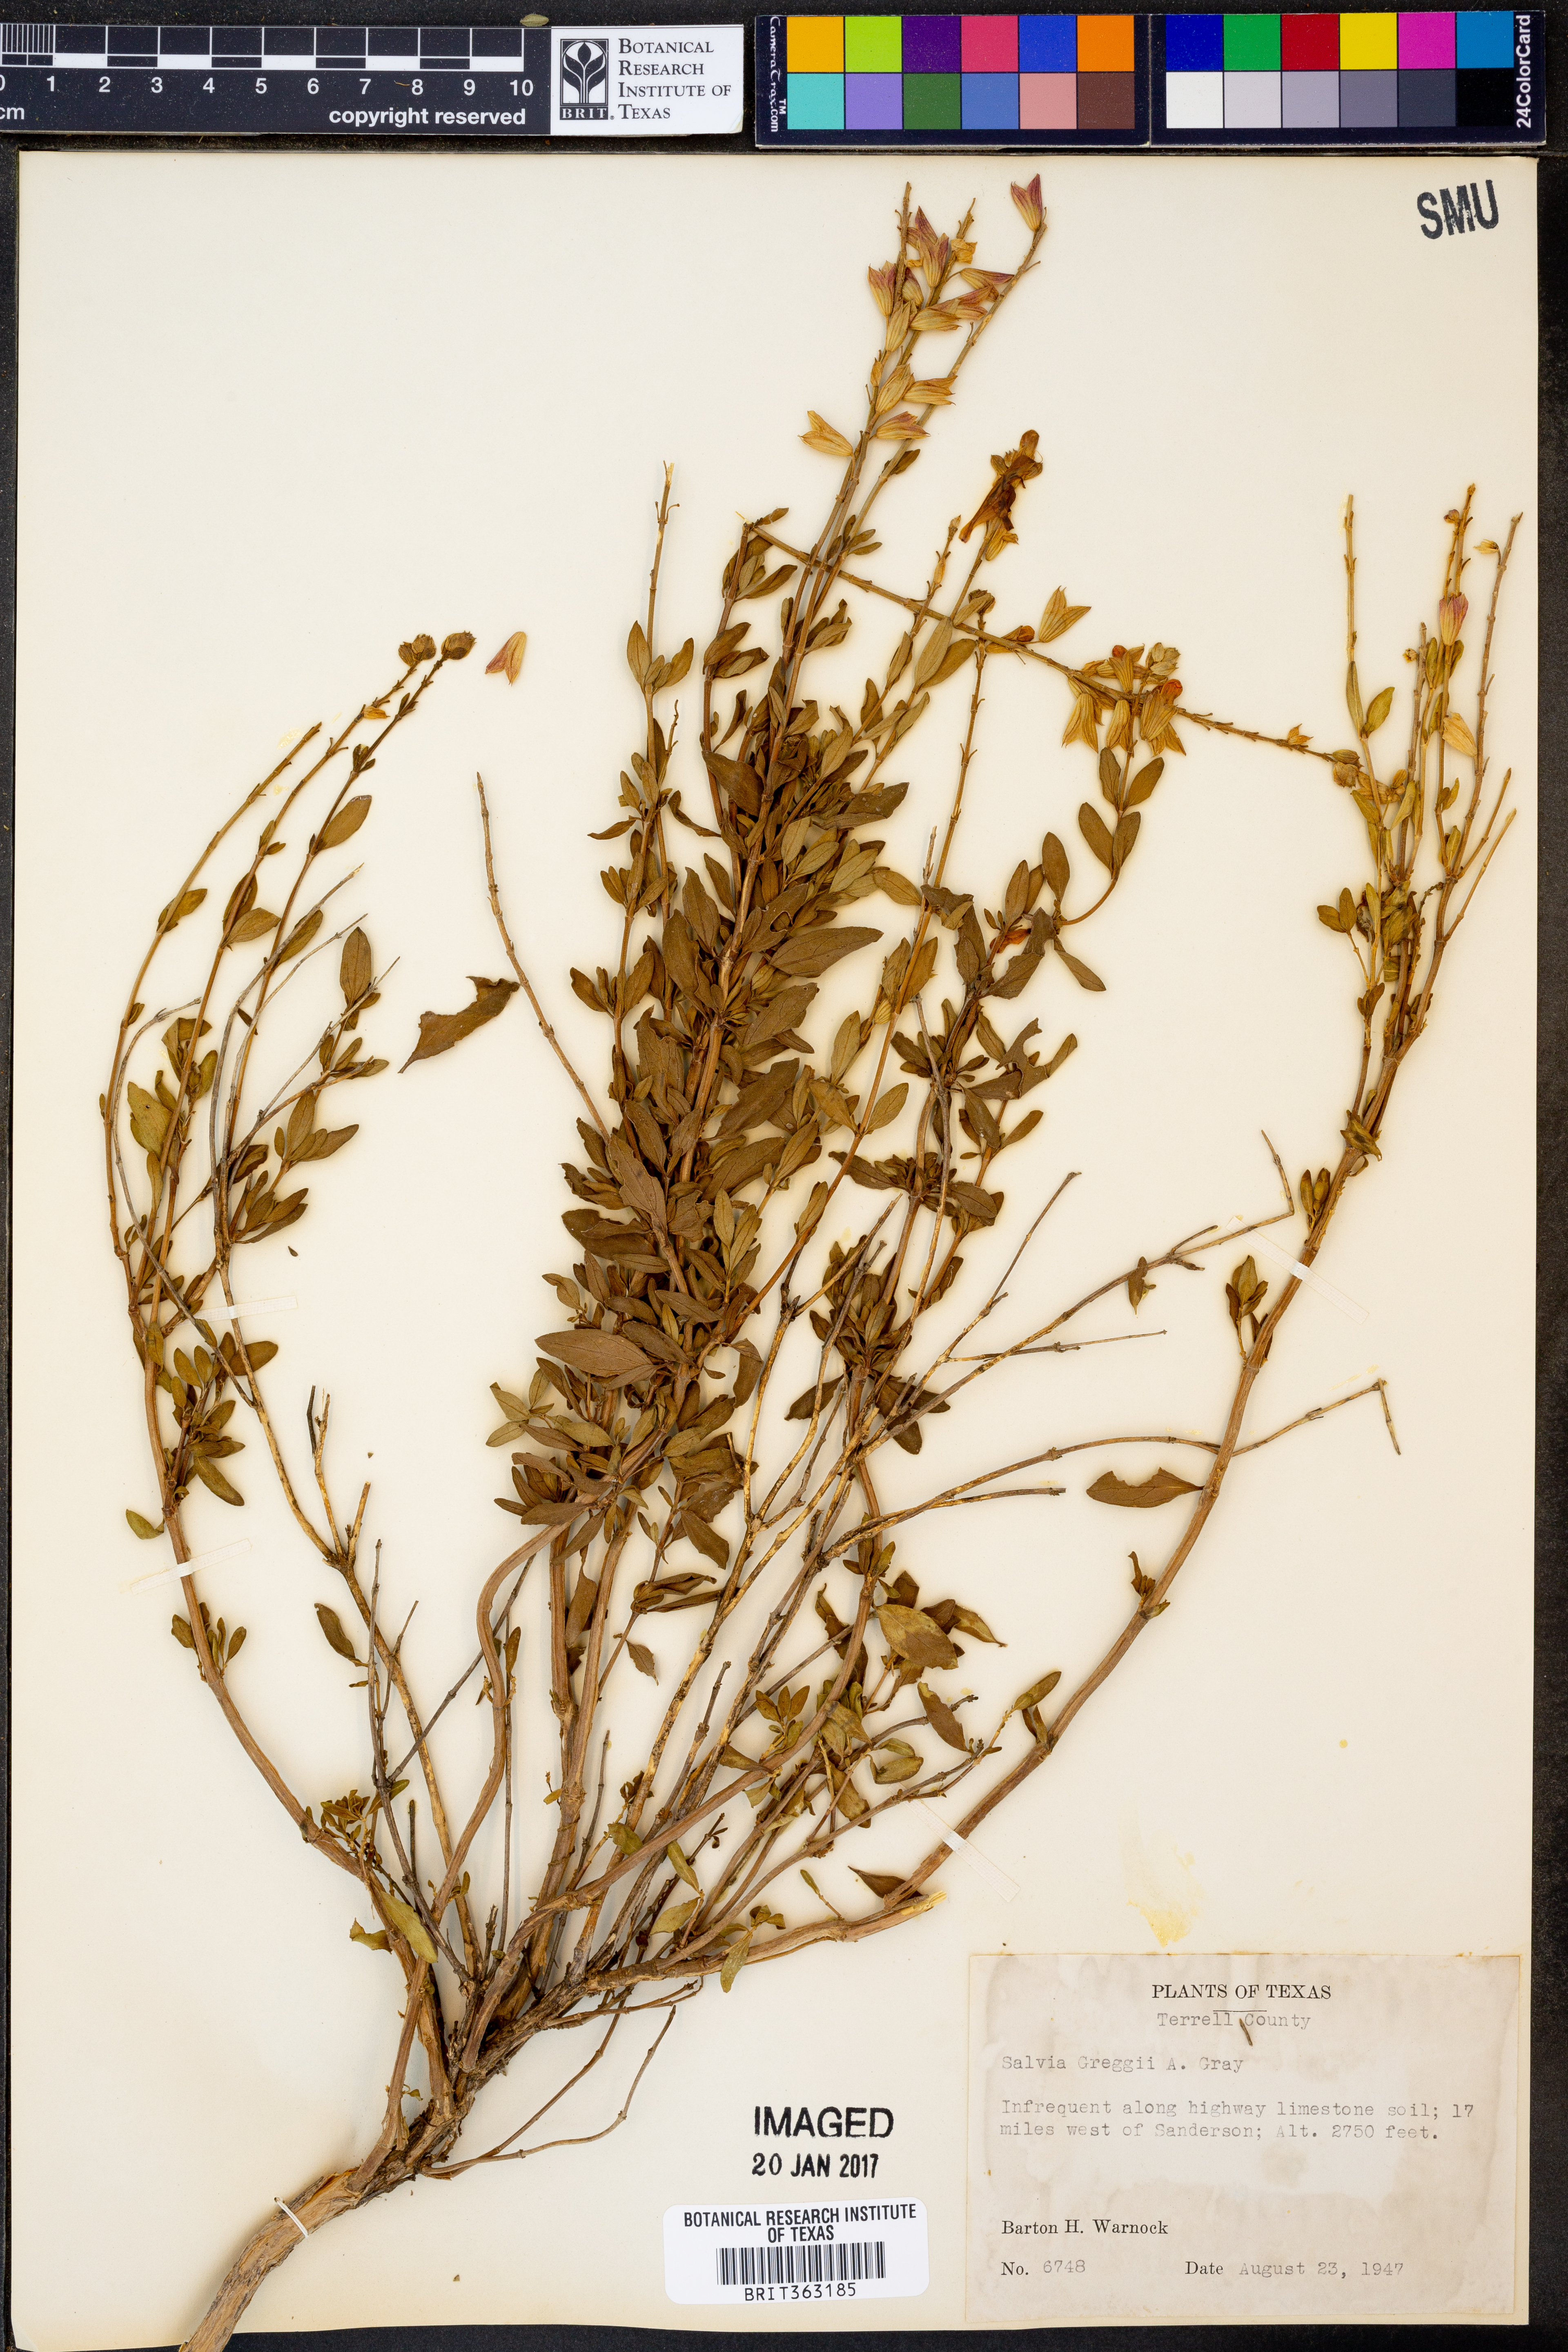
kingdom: Plantae
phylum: Tracheophyta
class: Magnoliopsida
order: Lamiales
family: Lamiaceae
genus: Salvia
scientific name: Salvia greggii
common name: Autumn sage
